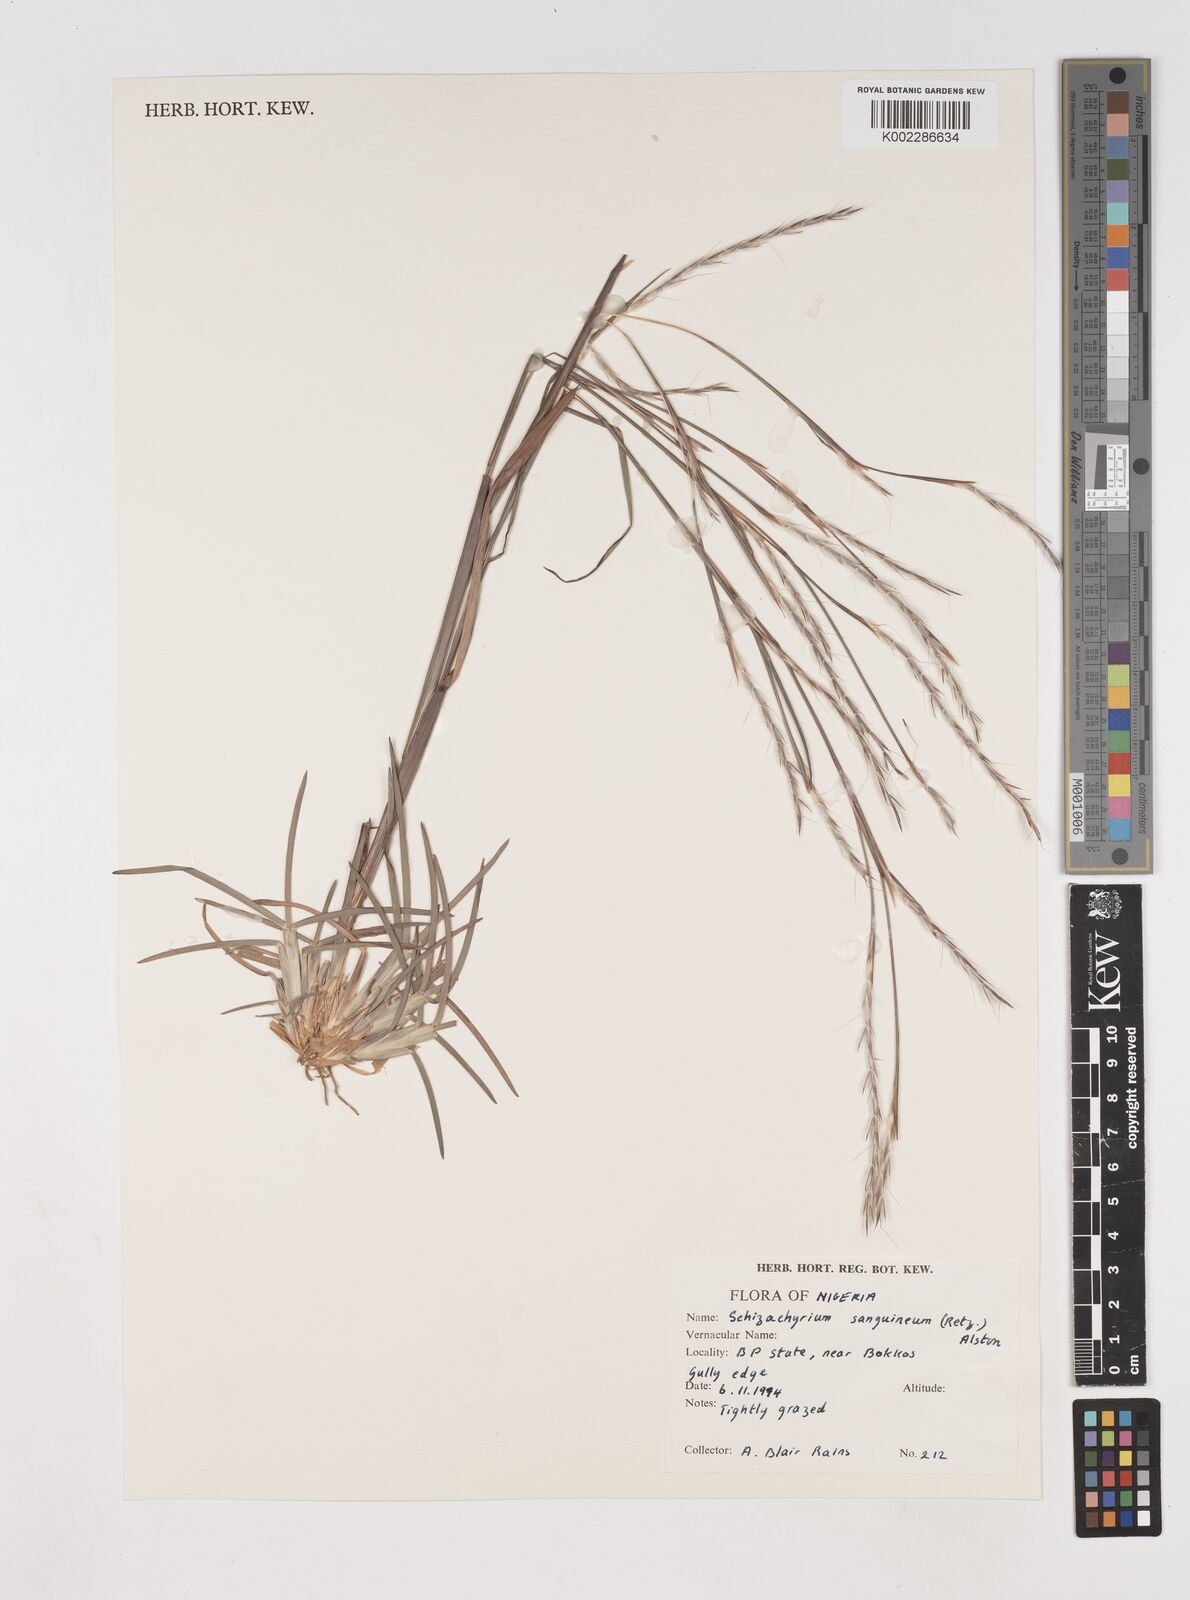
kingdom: Plantae
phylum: Tracheophyta
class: Liliopsida
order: Poales
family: Poaceae
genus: Schizachyrium
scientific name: Schizachyrium sanguineum
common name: Crimson bluestem
